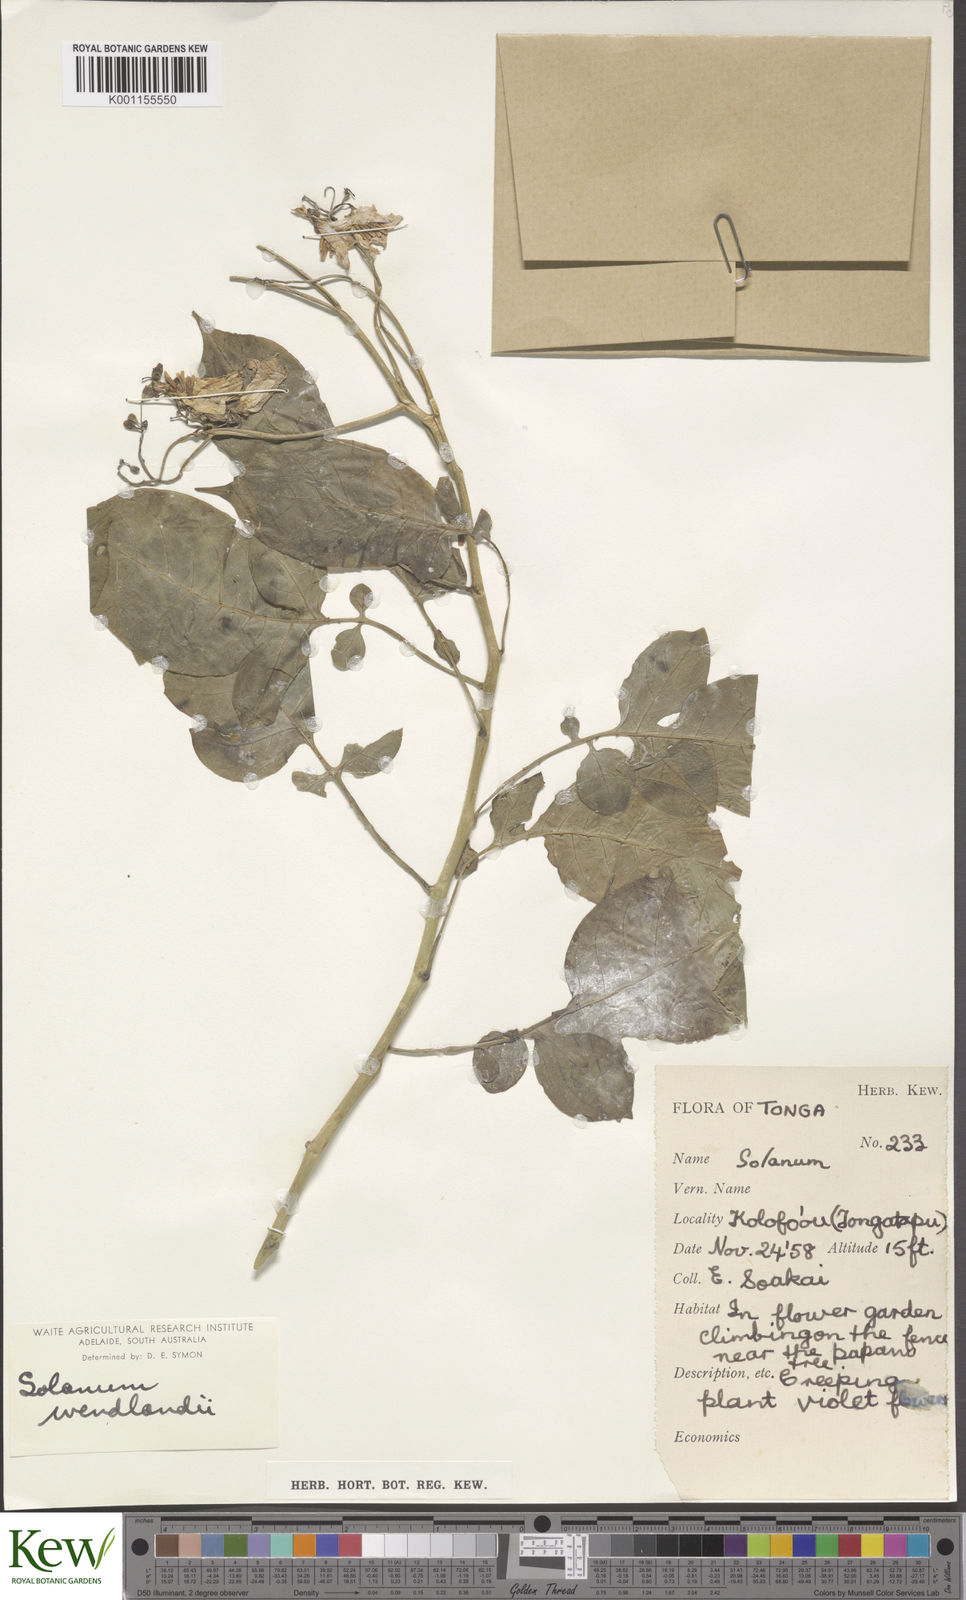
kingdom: Plantae
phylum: Tracheophyta
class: Magnoliopsida
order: Solanales
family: Solanaceae
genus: Solanum
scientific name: Solanum wendlandii
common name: Costa rican nightshade
